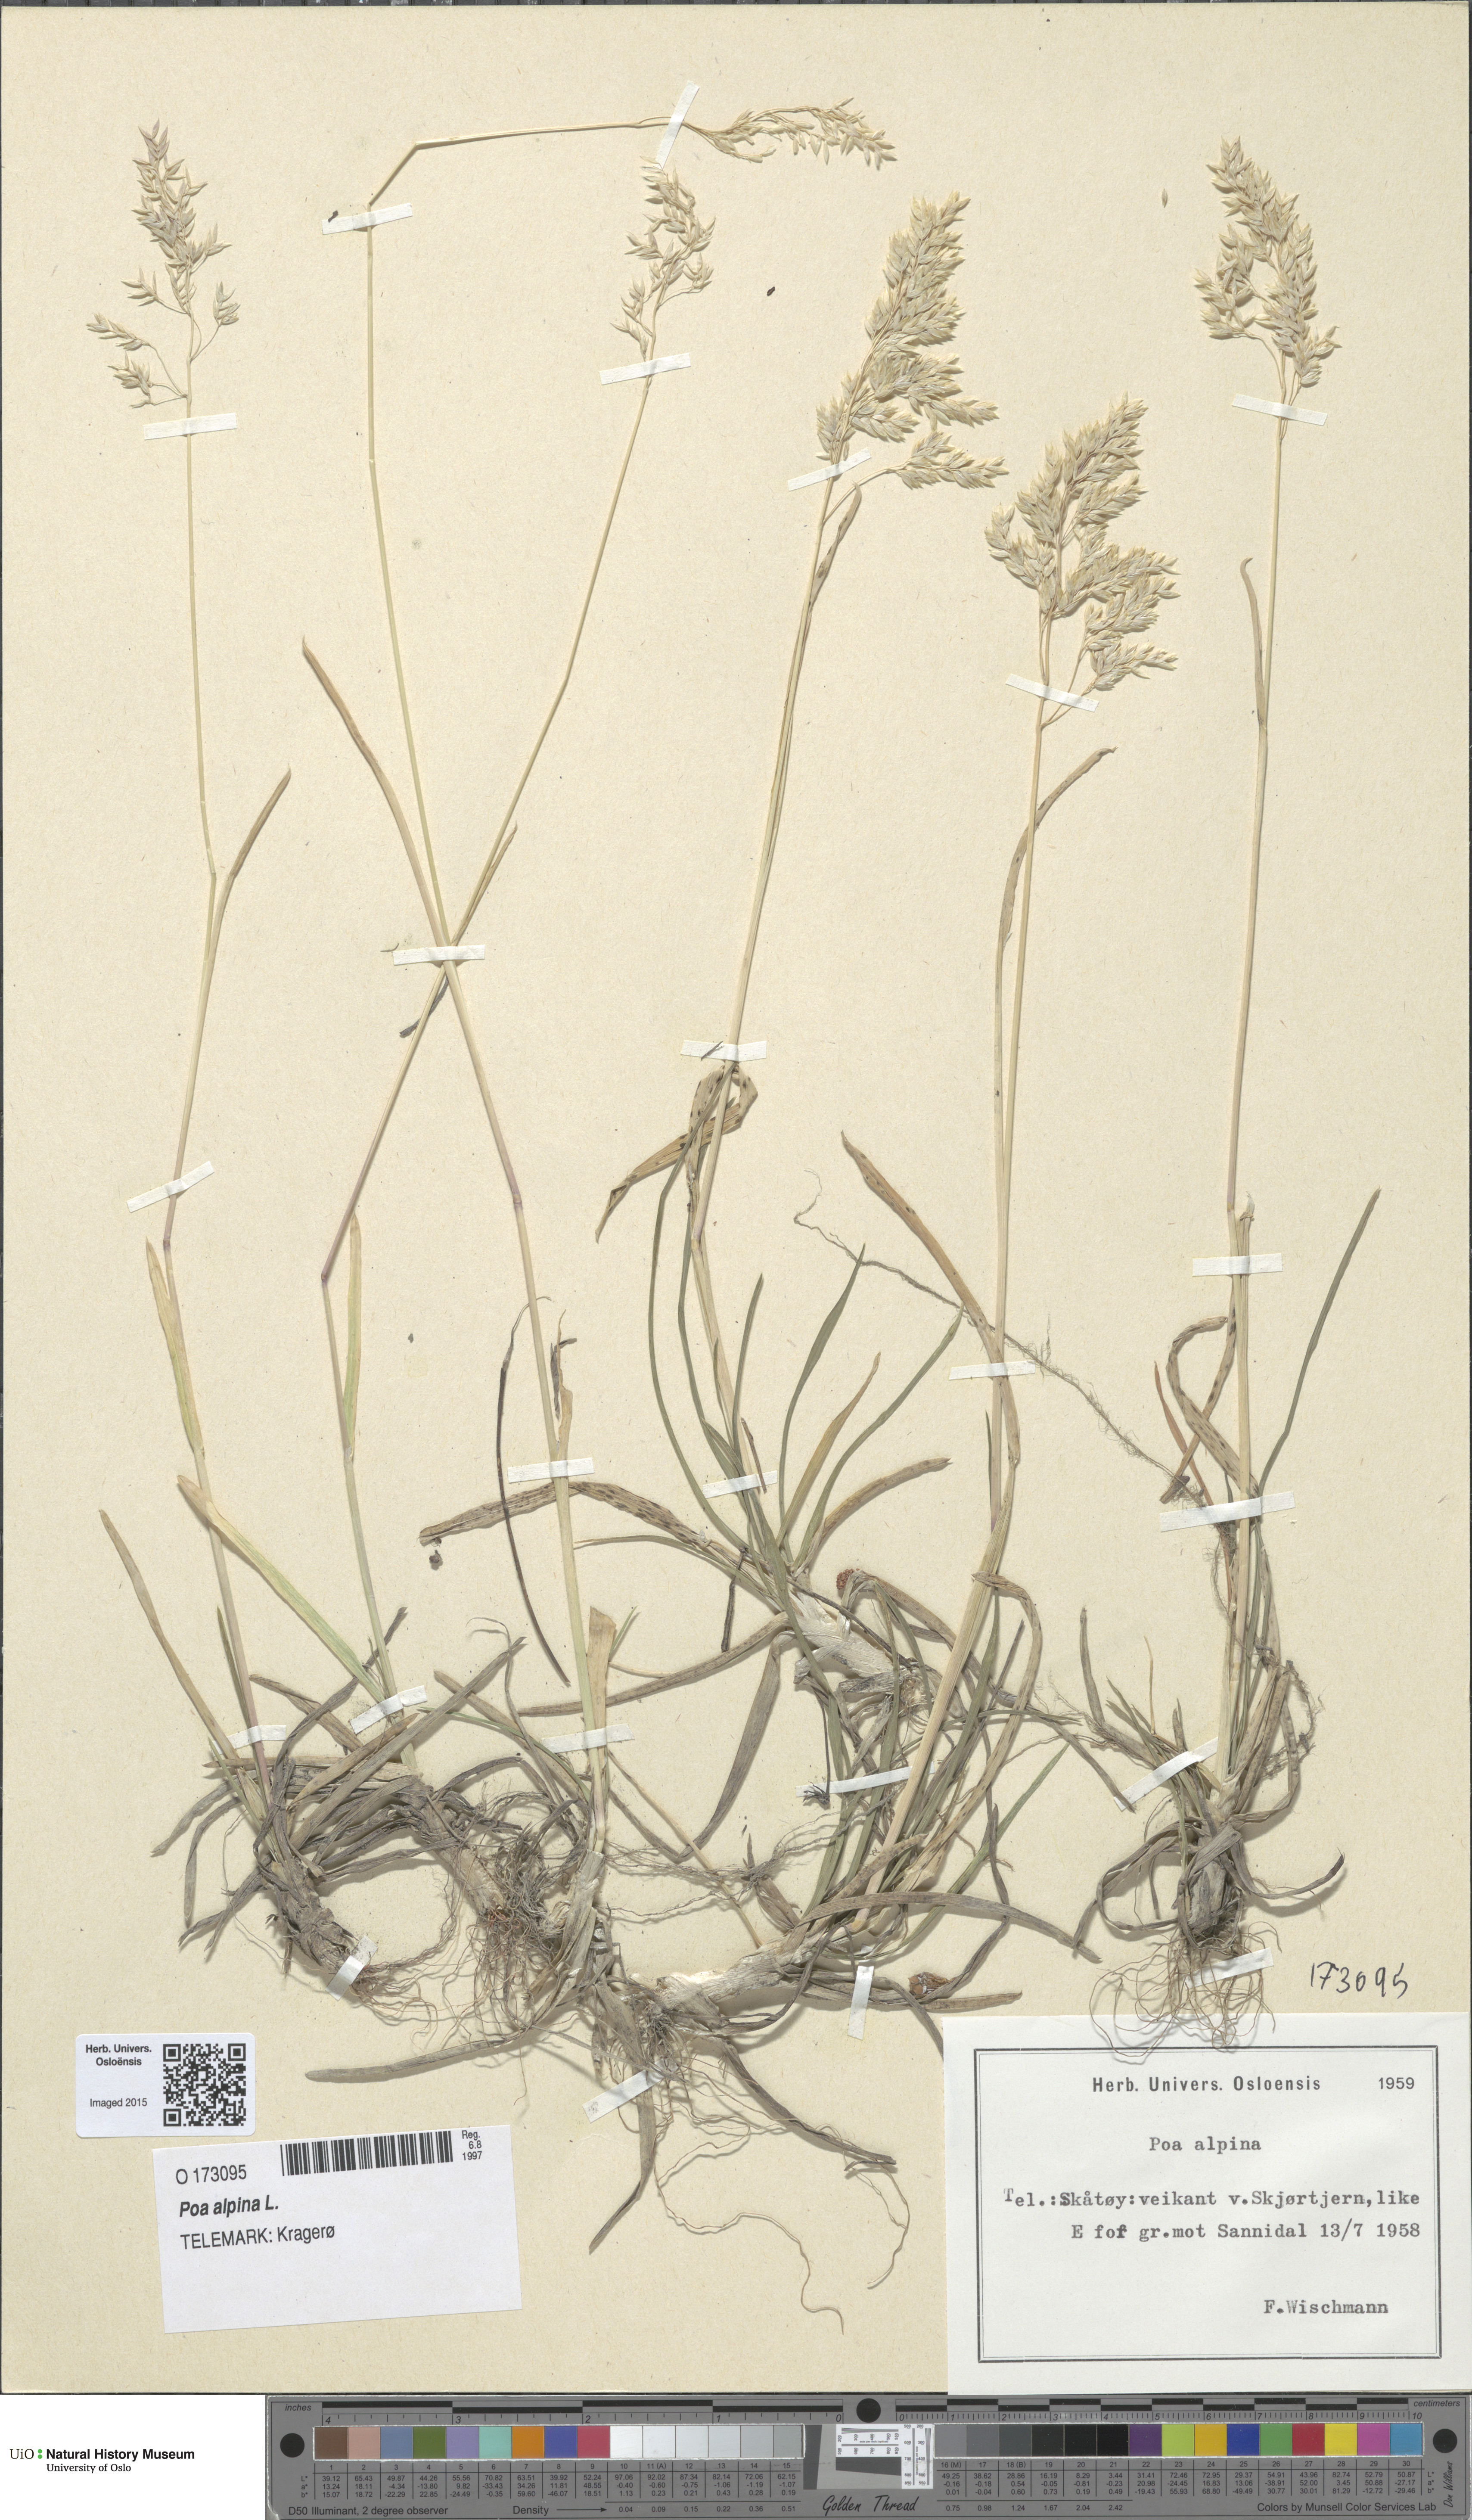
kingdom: Plantae
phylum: Tracheophyta
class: Liliopsida
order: Poales
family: Poaceae
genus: Poa
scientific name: Poa alpina
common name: Alpine bluegrass
